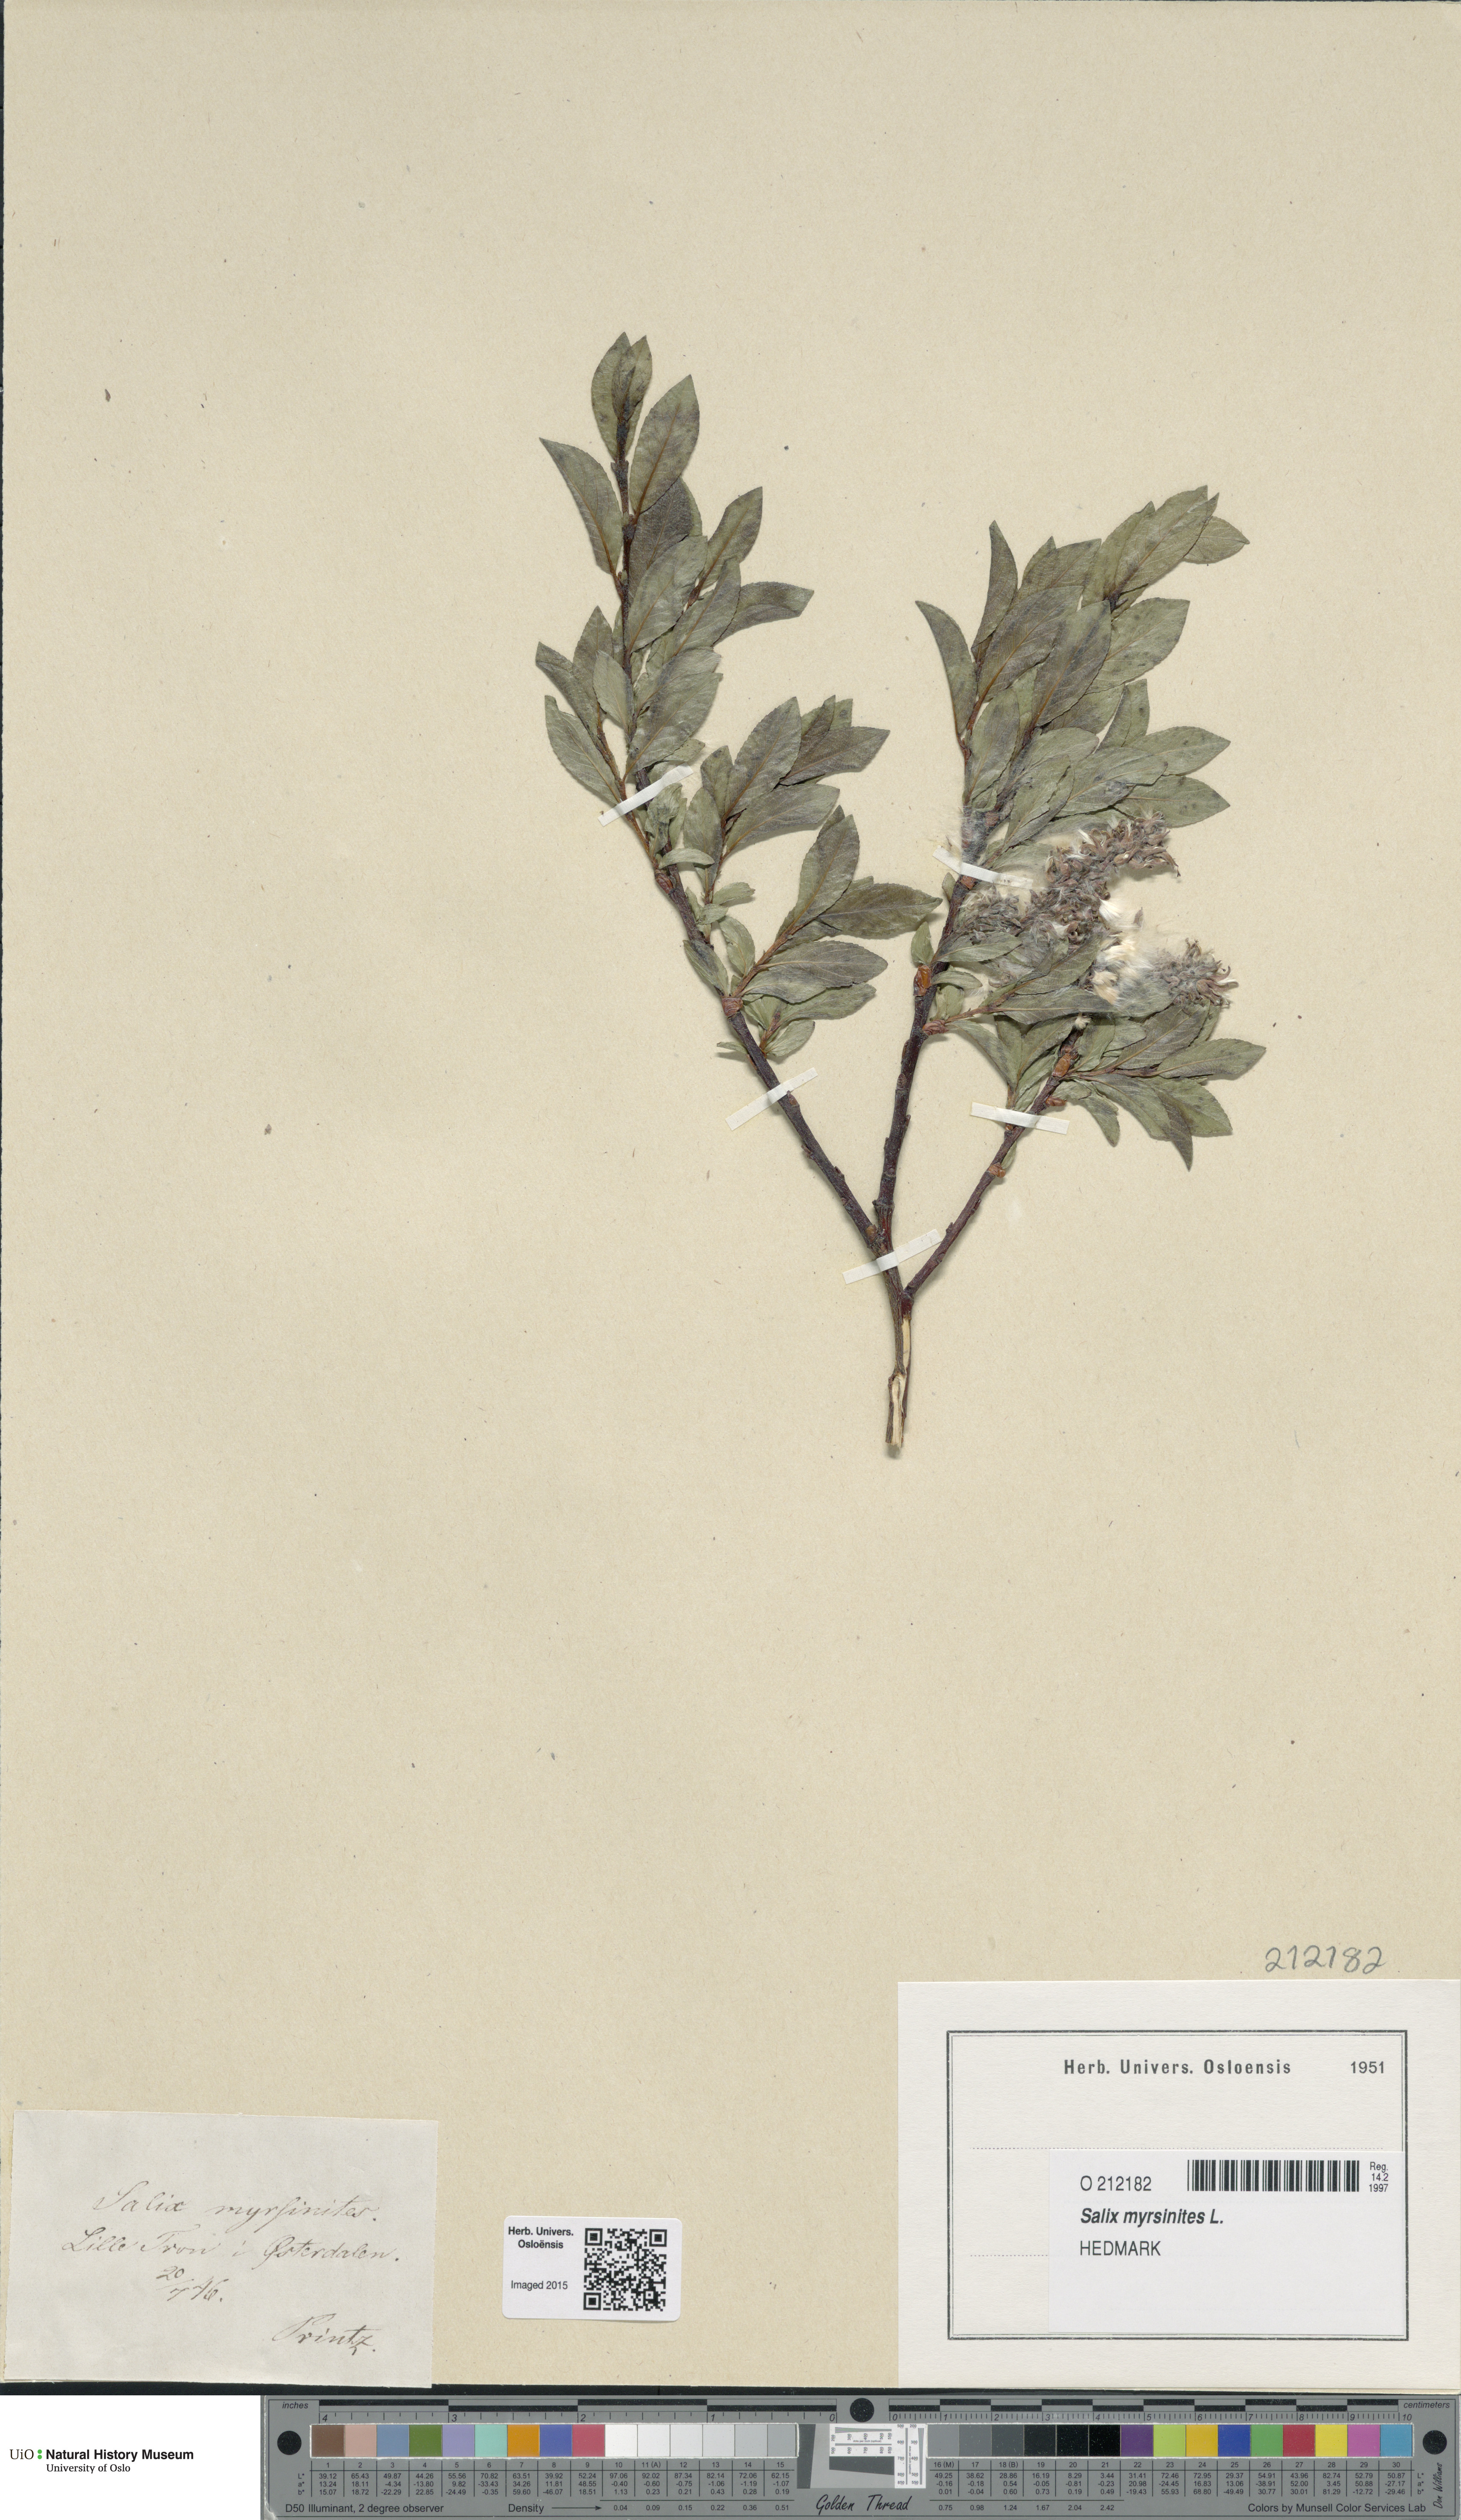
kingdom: Plantae
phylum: Tracheophyta
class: Magnoliopsida
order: Malpighiales
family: Salicaceae
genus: Salix
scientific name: Salix myrsinites
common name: Myrtle willow
